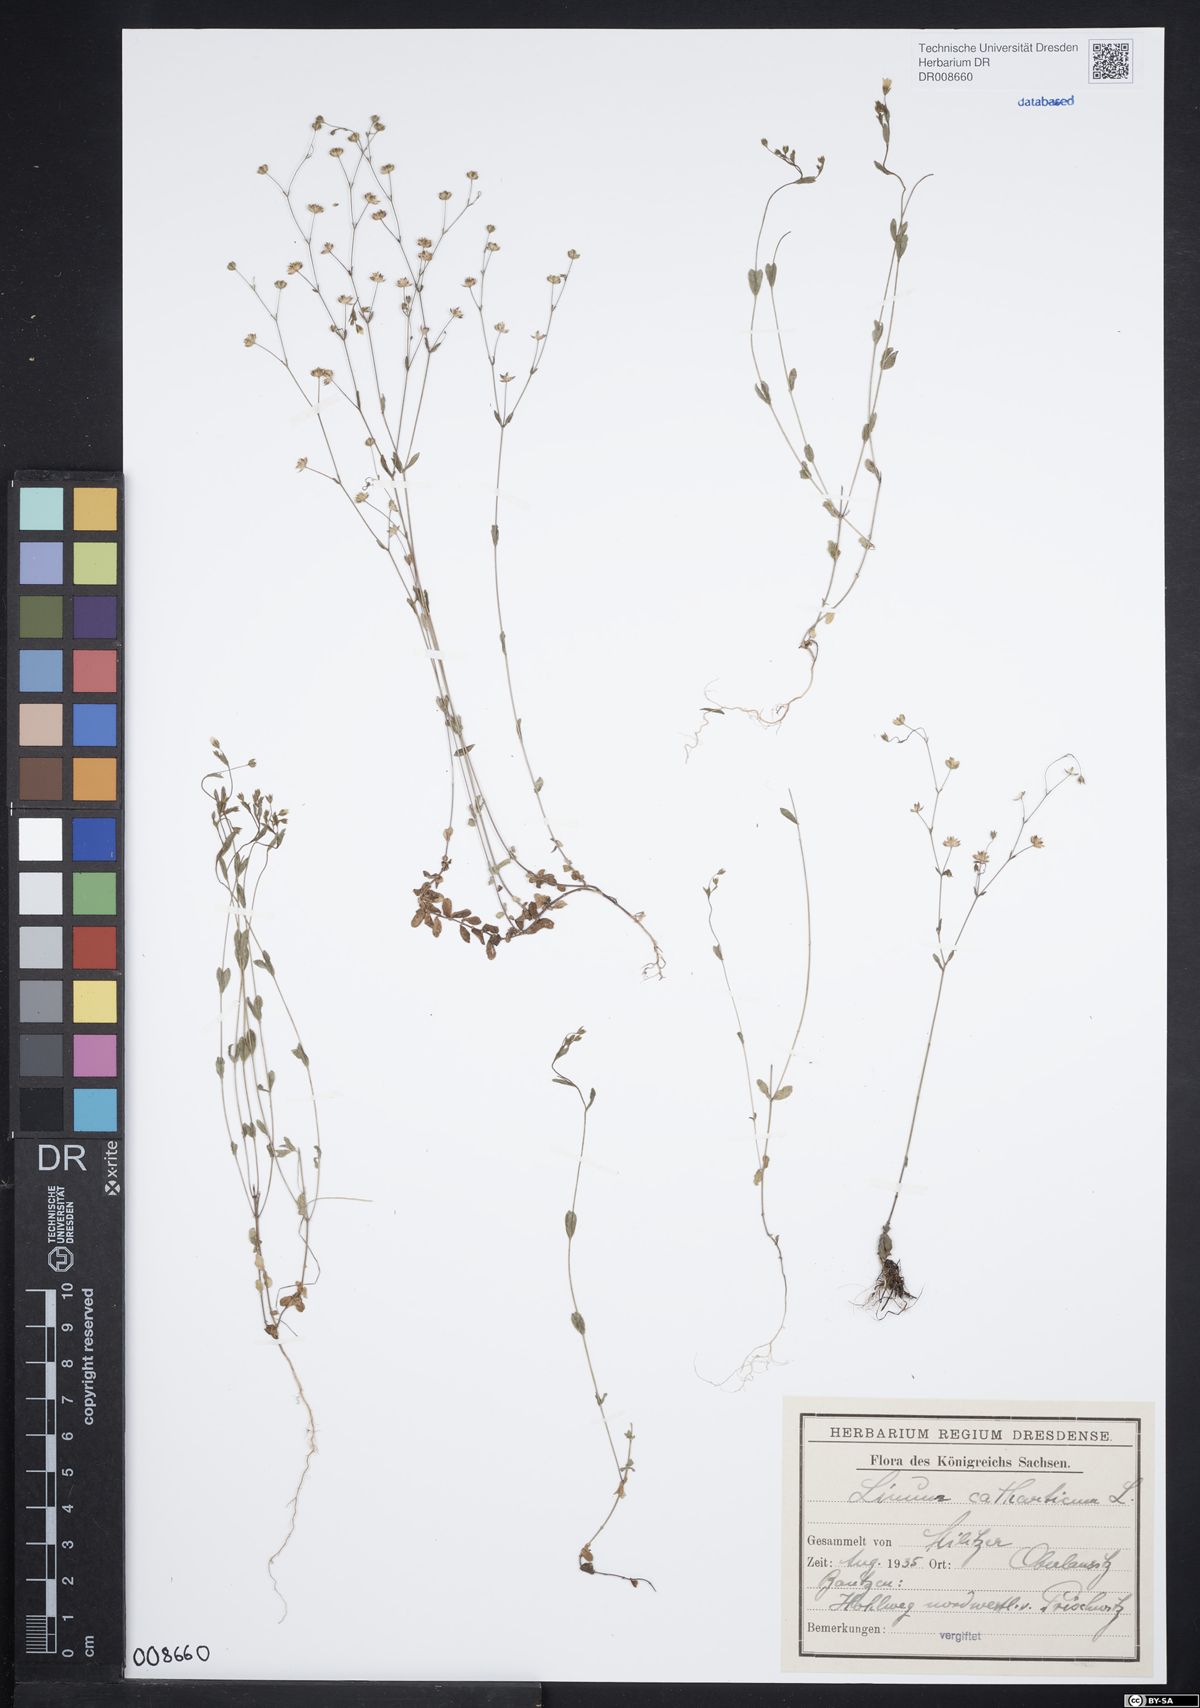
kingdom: Plantae
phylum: Tracheophyta
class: Magnoliopsida
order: Malpighiales
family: Linaceae
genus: Linum
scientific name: Linum catharticum
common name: Fairy flax
